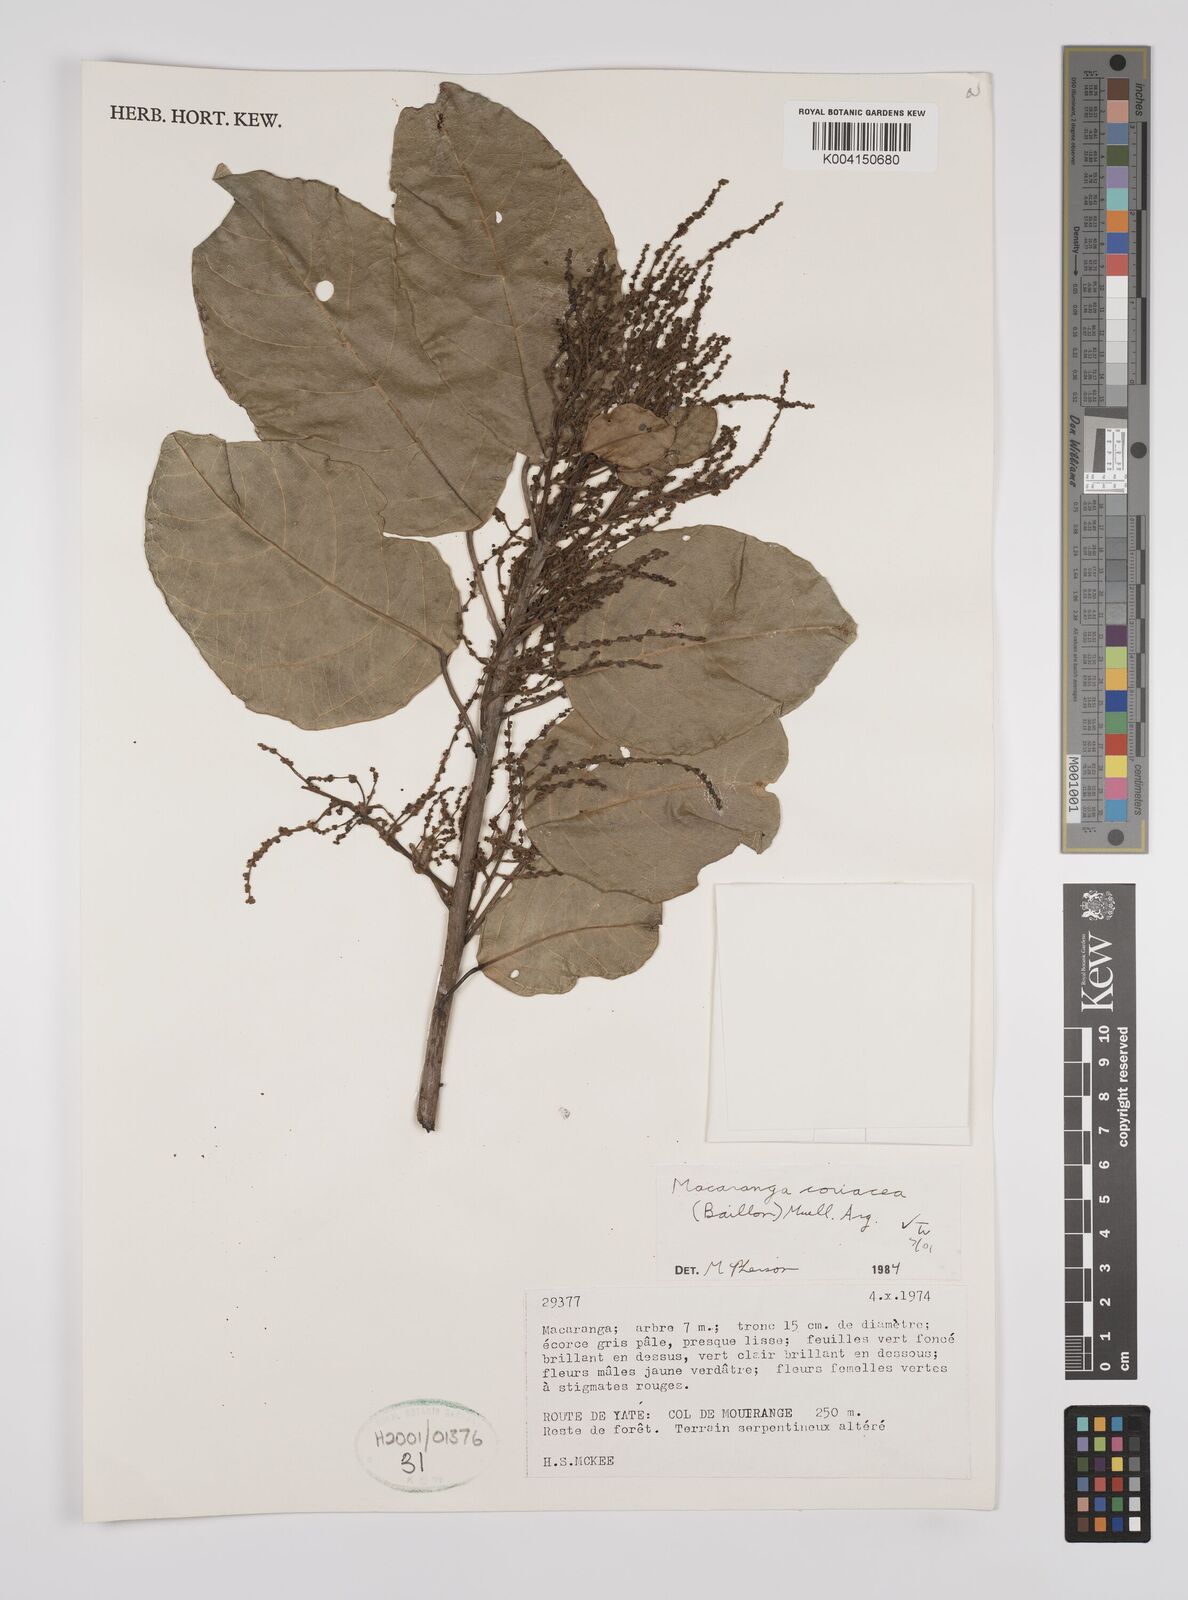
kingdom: Plantae
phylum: Tracheophyta
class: Magnoliopsida
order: Malpighiales
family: Euphorbiaceae
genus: Macaranga
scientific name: Macaranga coriacea
